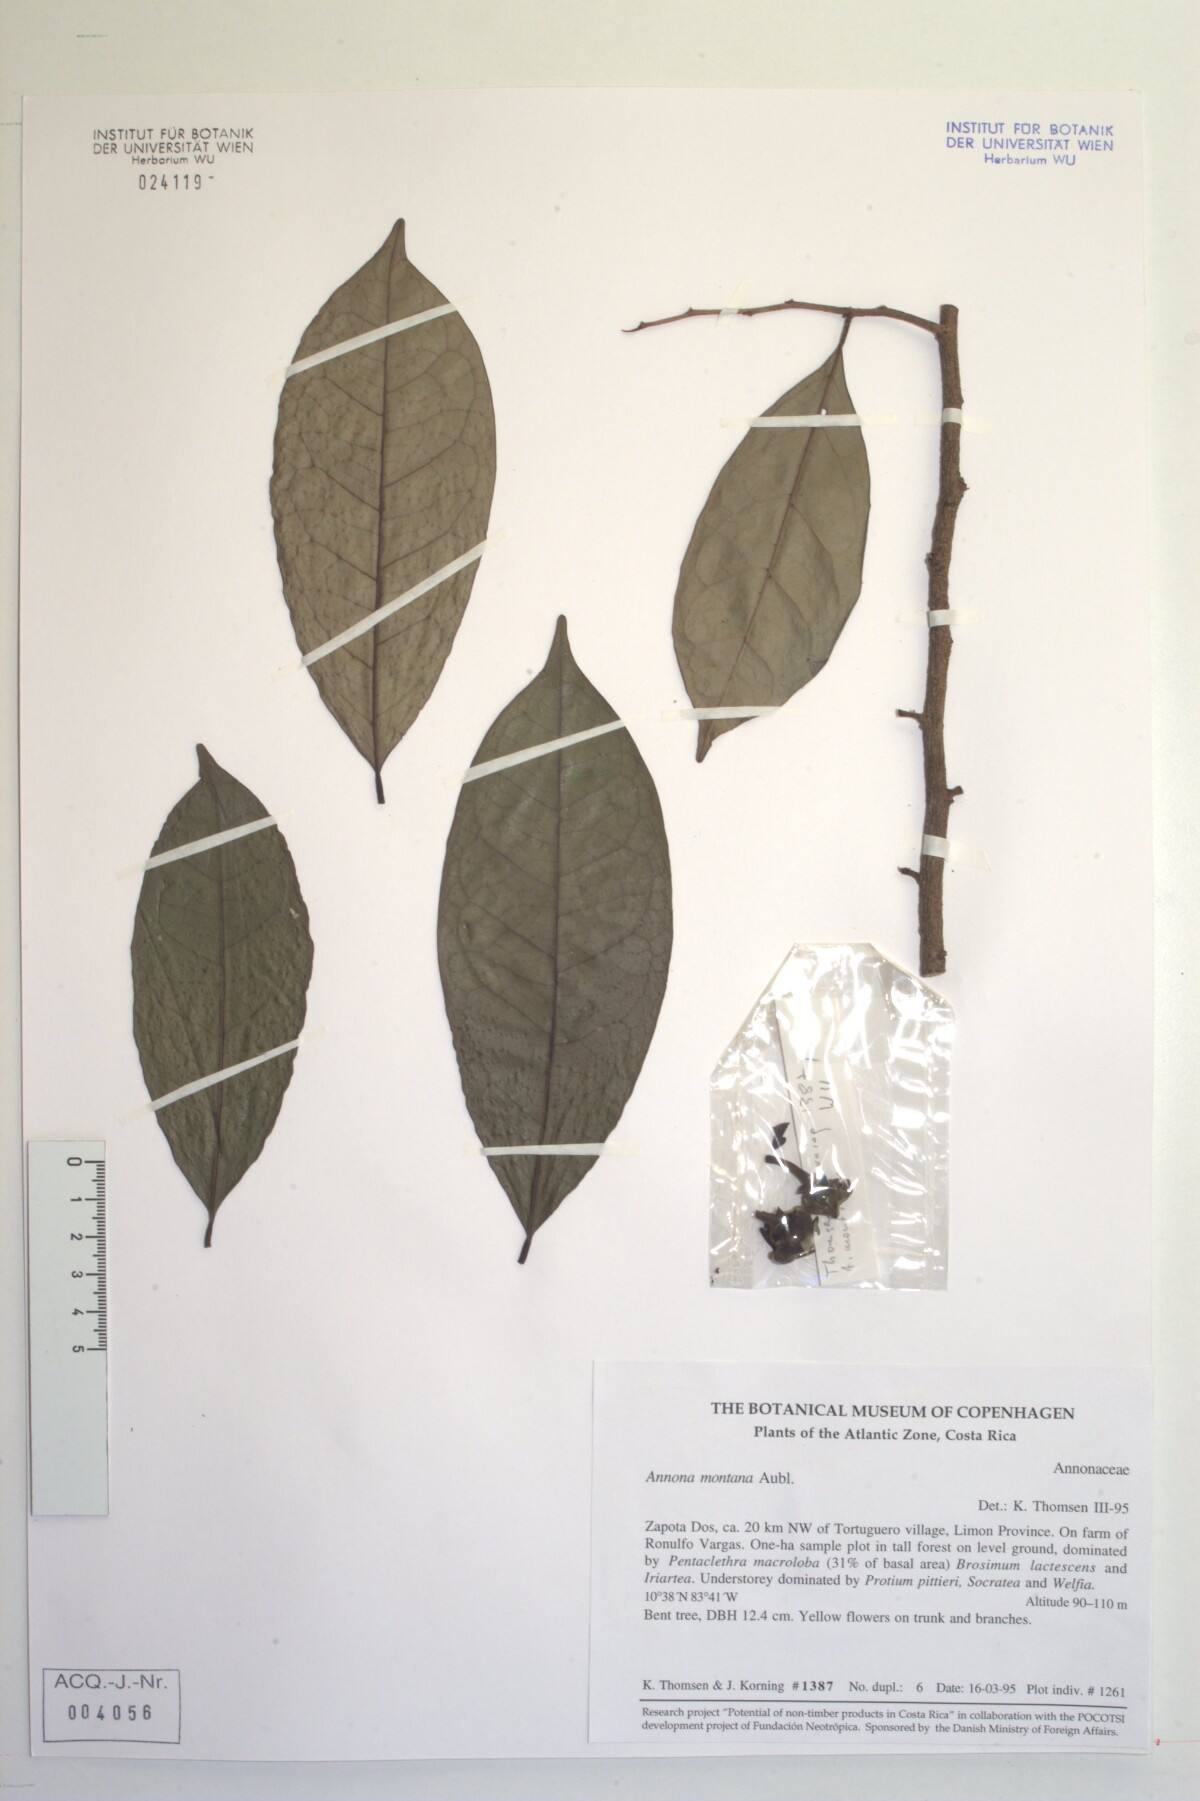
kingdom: Plantae
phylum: Tracheophyta
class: Magnoliopsida
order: Magnoliales
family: Annonaceae
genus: Annona
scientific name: Annona
